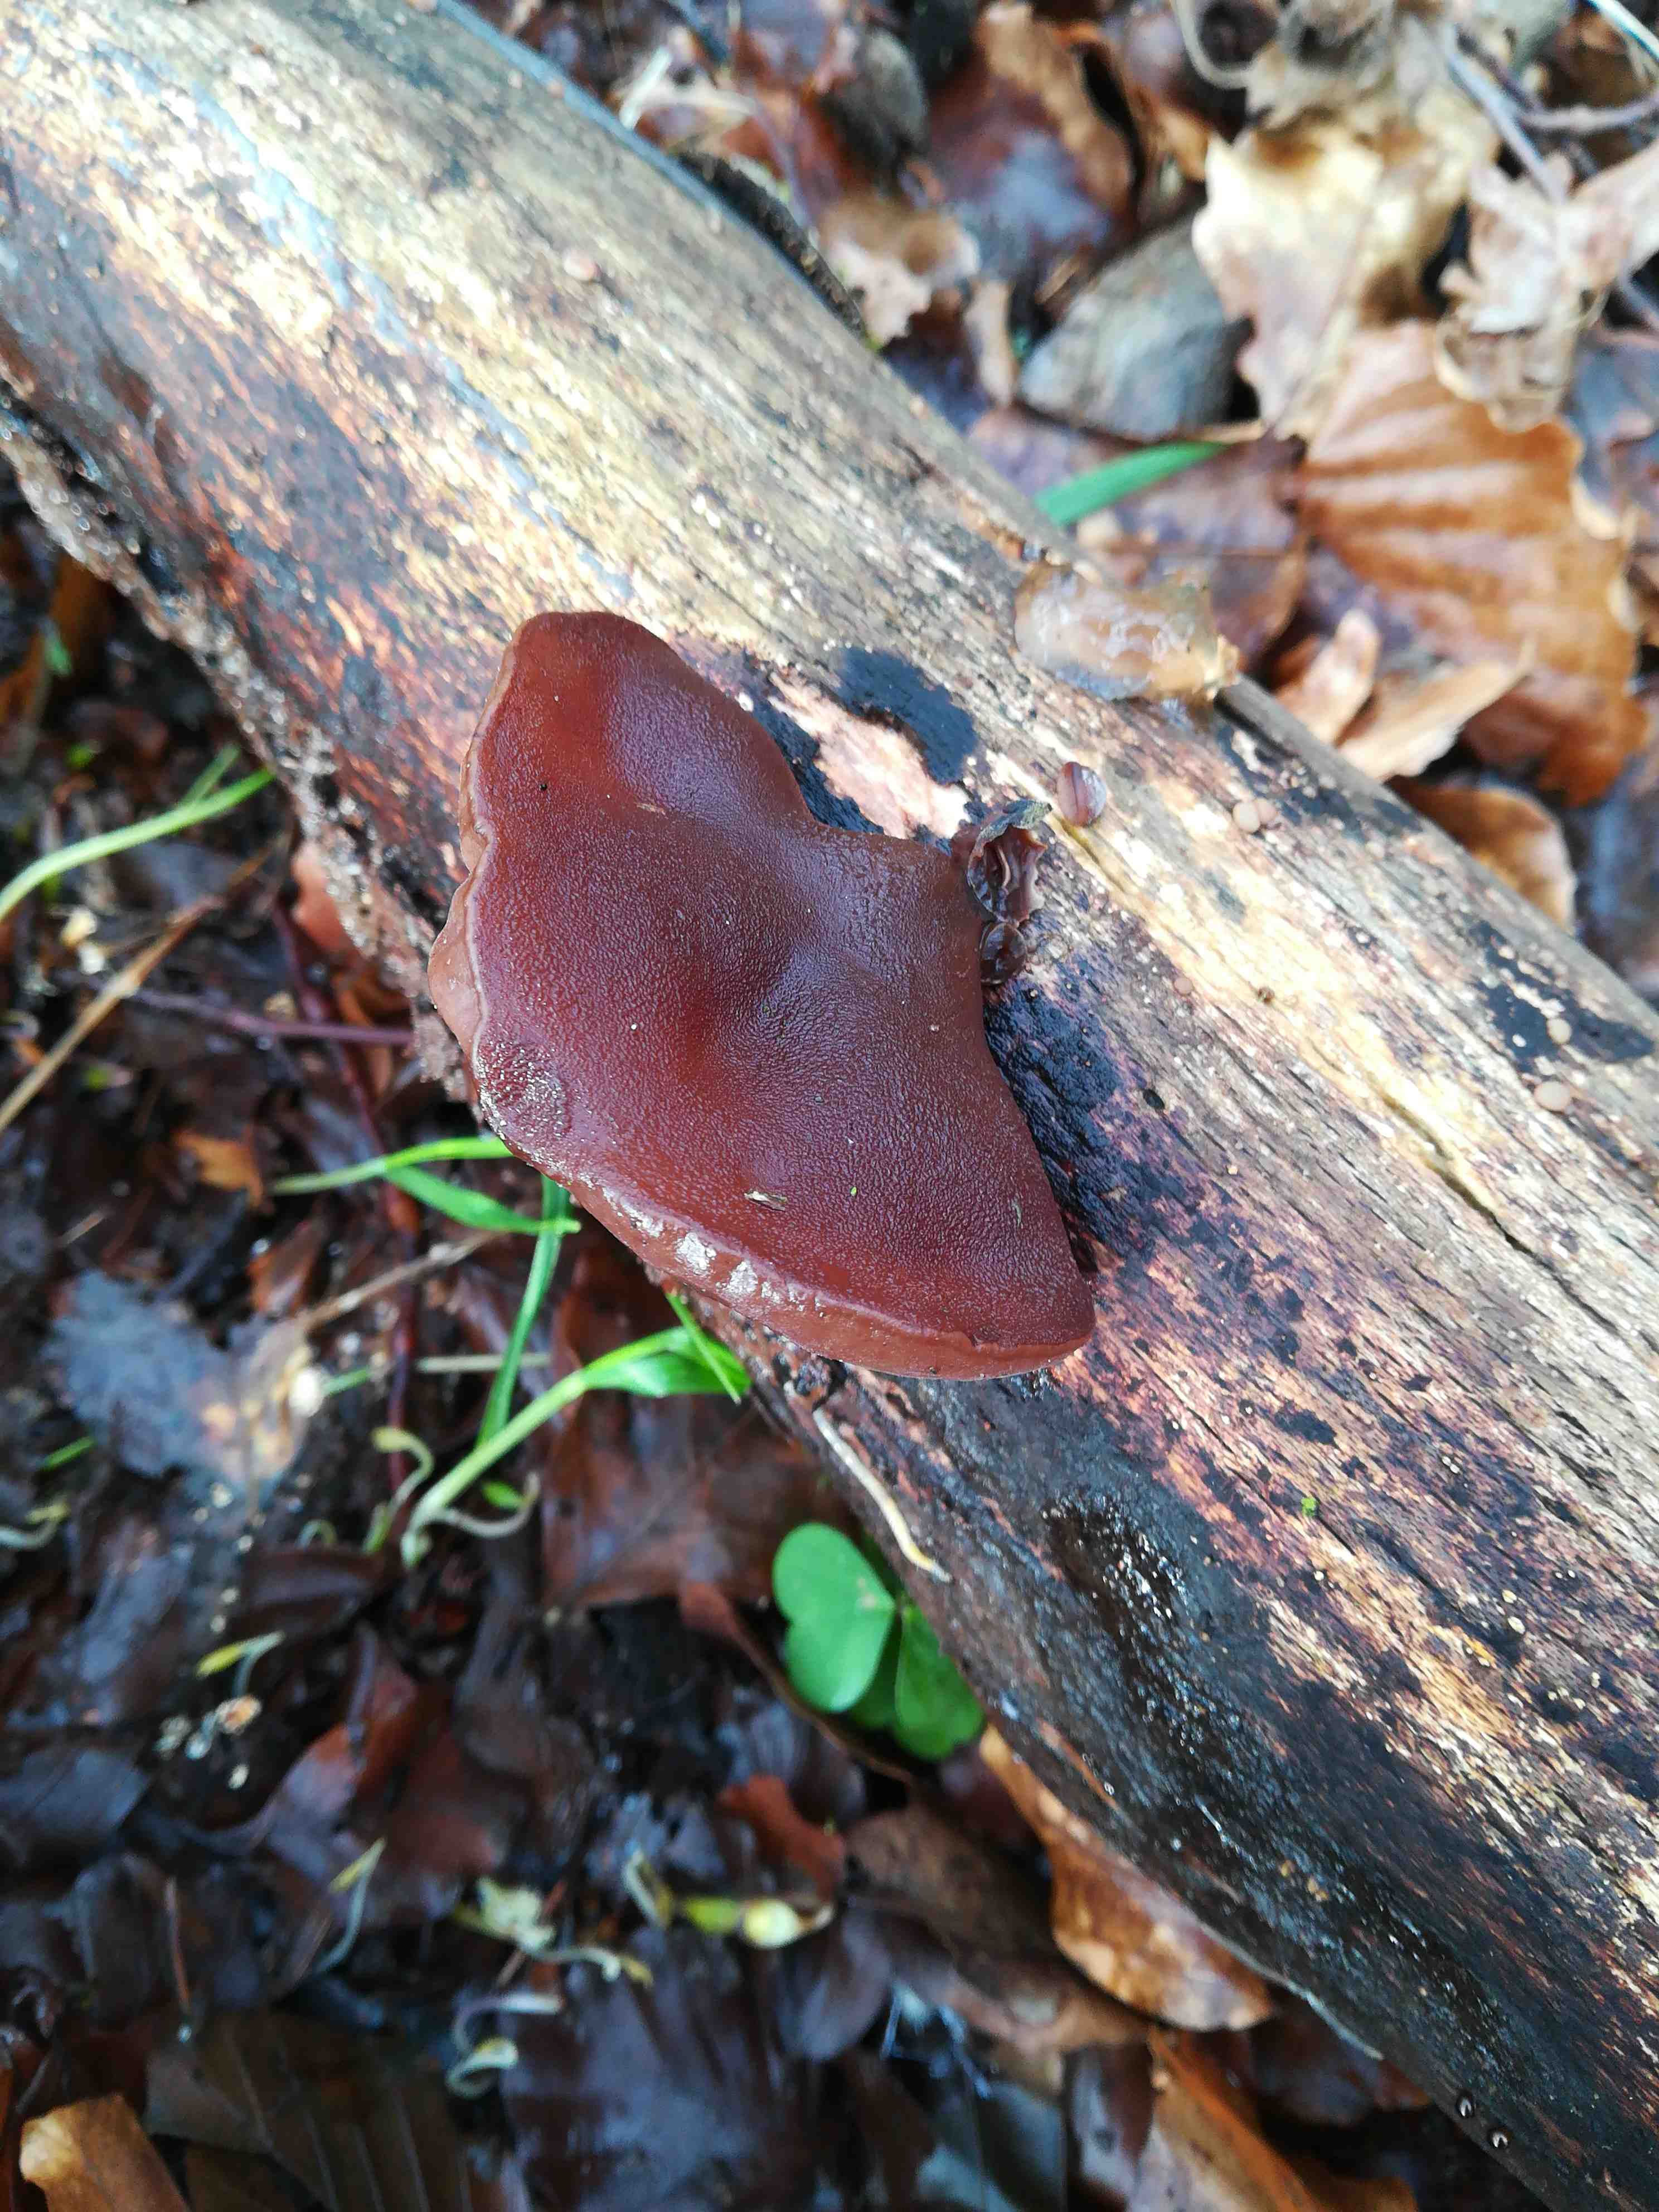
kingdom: Fungi
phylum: Basidiomycota
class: Agaricomycetes
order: Auriculariales
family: Auriculariaceae
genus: Auricularia
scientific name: Auricularia auricula-judae
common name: almindelig judasøre
